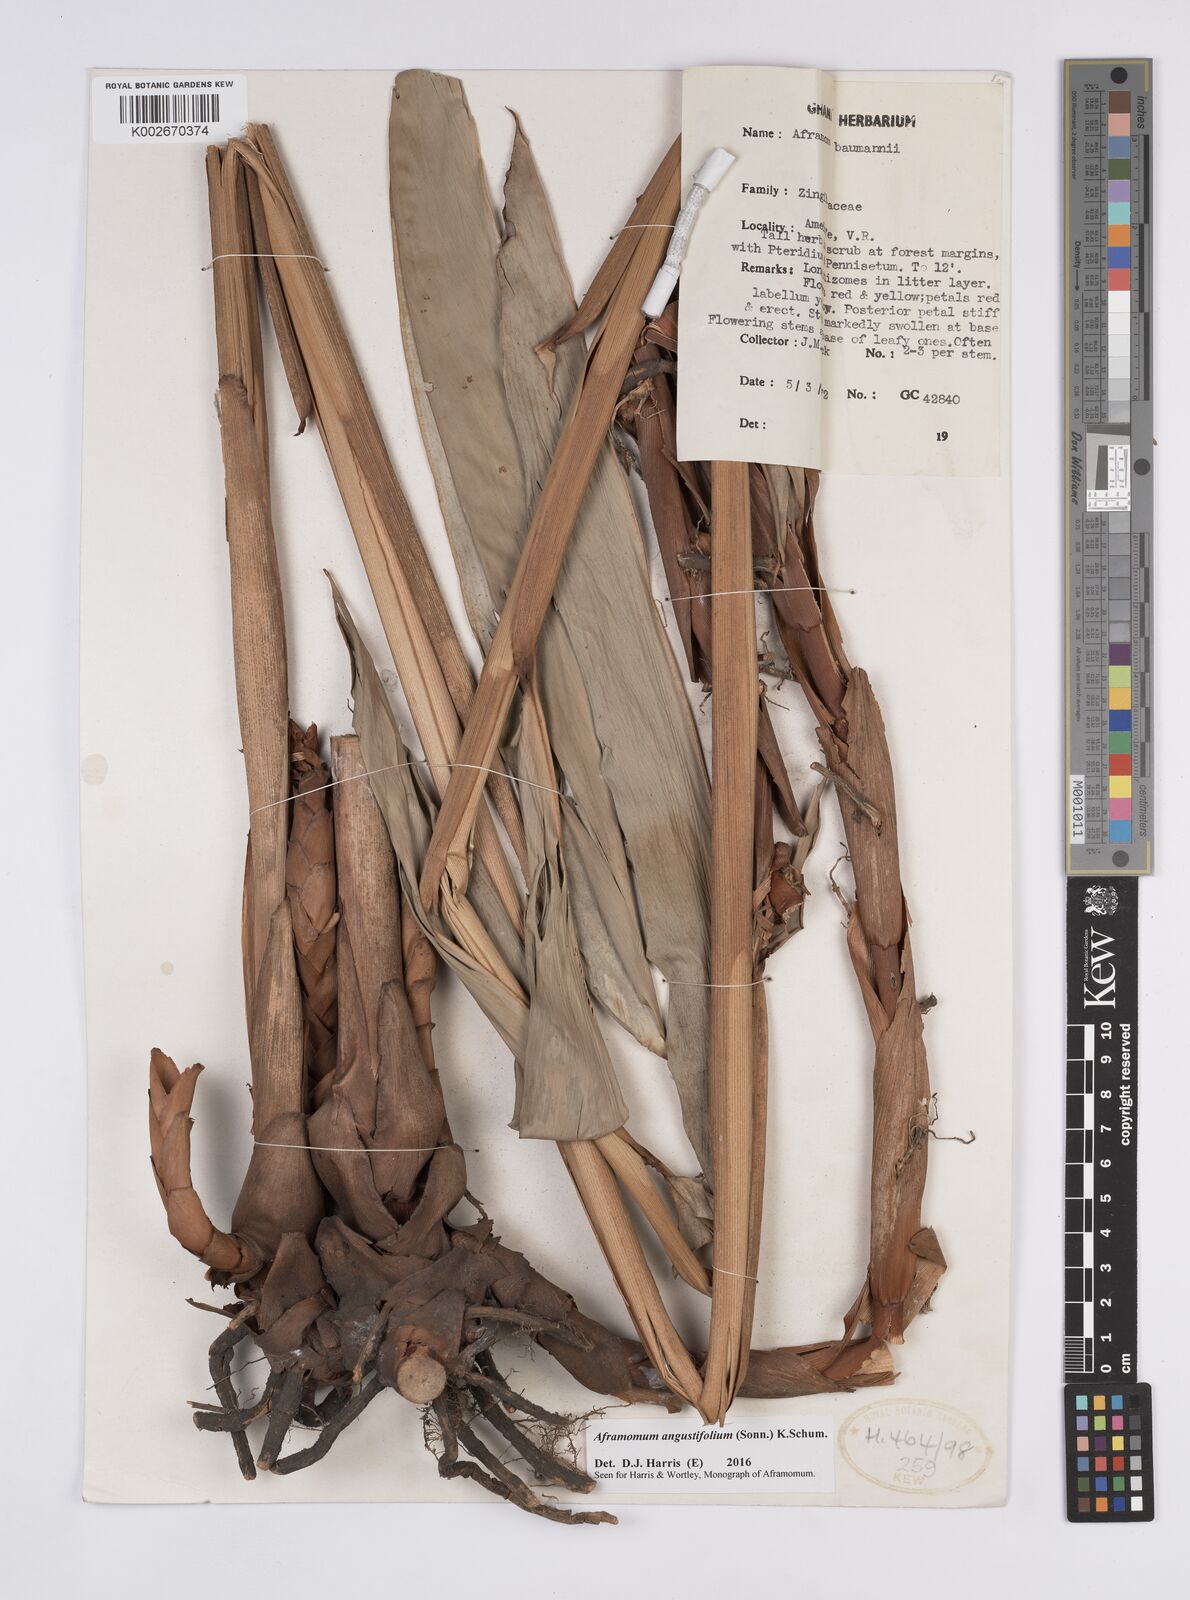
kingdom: Plantae
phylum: Tracheophyta
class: Liliopsida
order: Zingiberales
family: Zingiberaceae
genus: Aframomum
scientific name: Aframomum angustifolium
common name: Guinea grains
